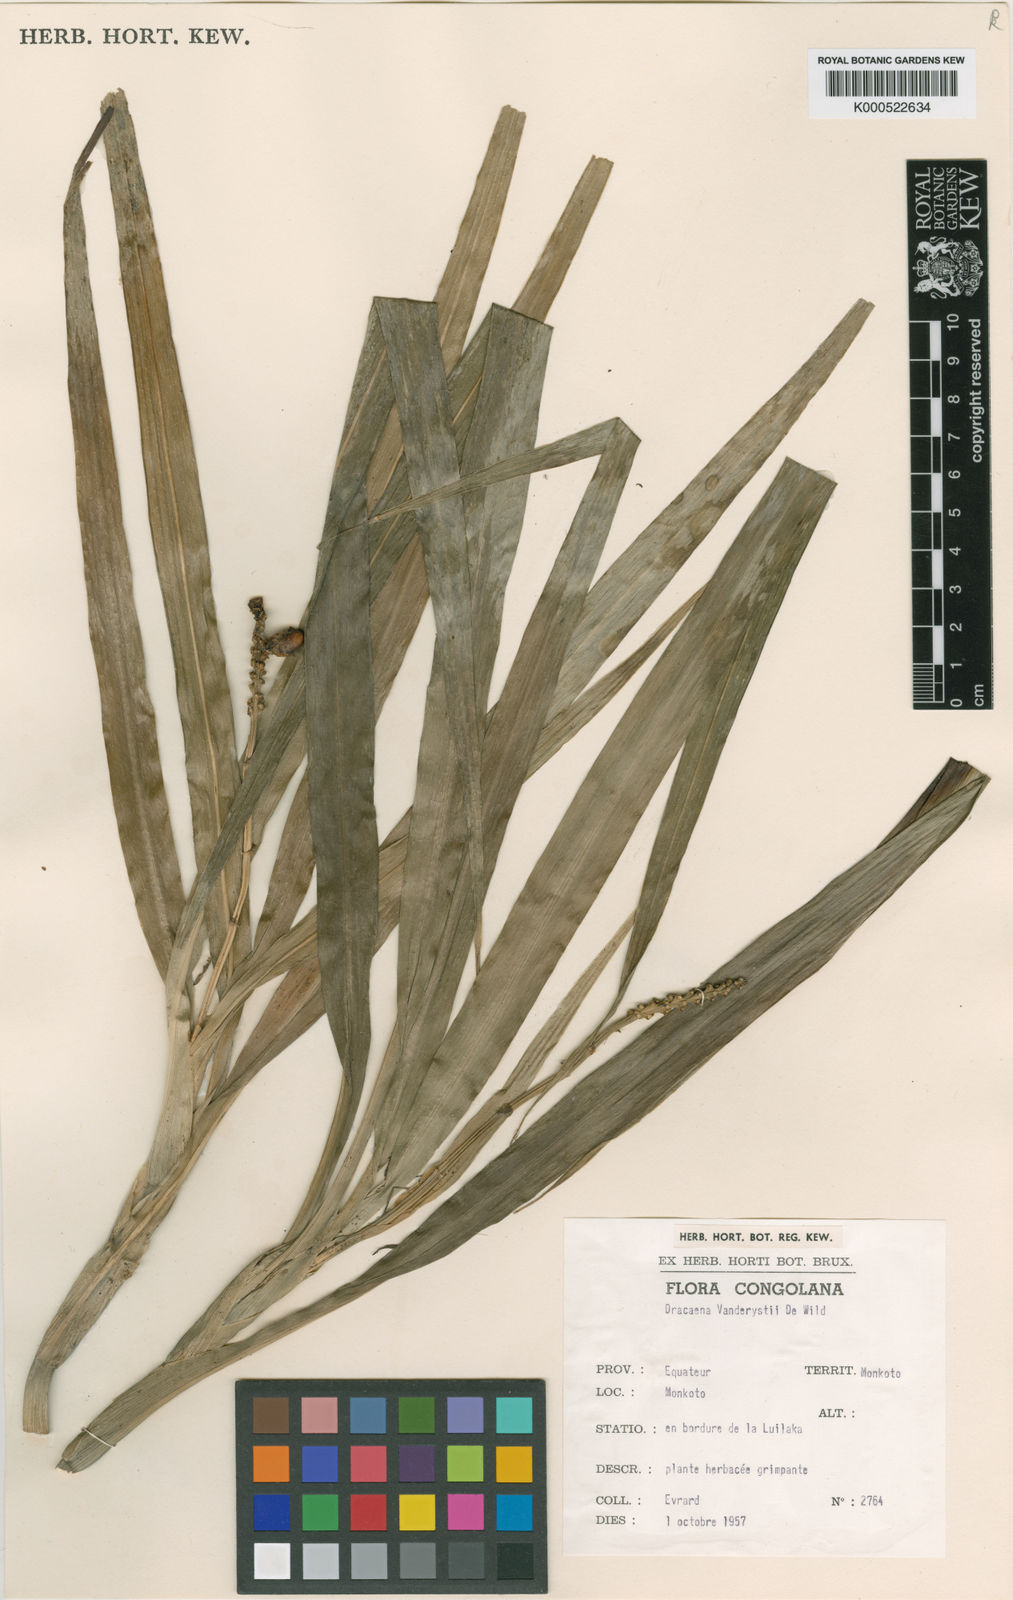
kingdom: Plantae
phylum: Tracheophyta
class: Liliopsida
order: Asparagales
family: Asparagaceae
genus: Dracaena
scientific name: Dracaena sanderiana
